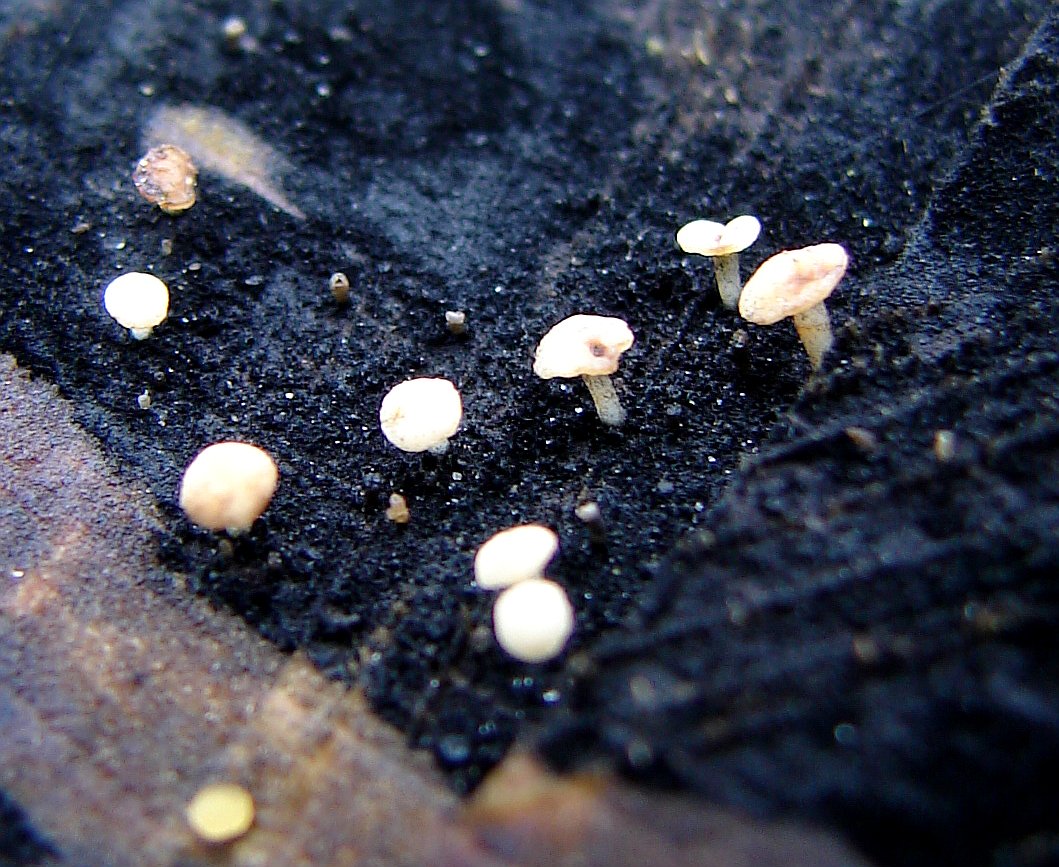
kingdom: Fungi
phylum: Ascomycota
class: Leotiomycetes
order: Helotiales
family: Helotiaceae
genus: Bispora
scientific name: Bispora pallescens
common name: måtte-snitskive
